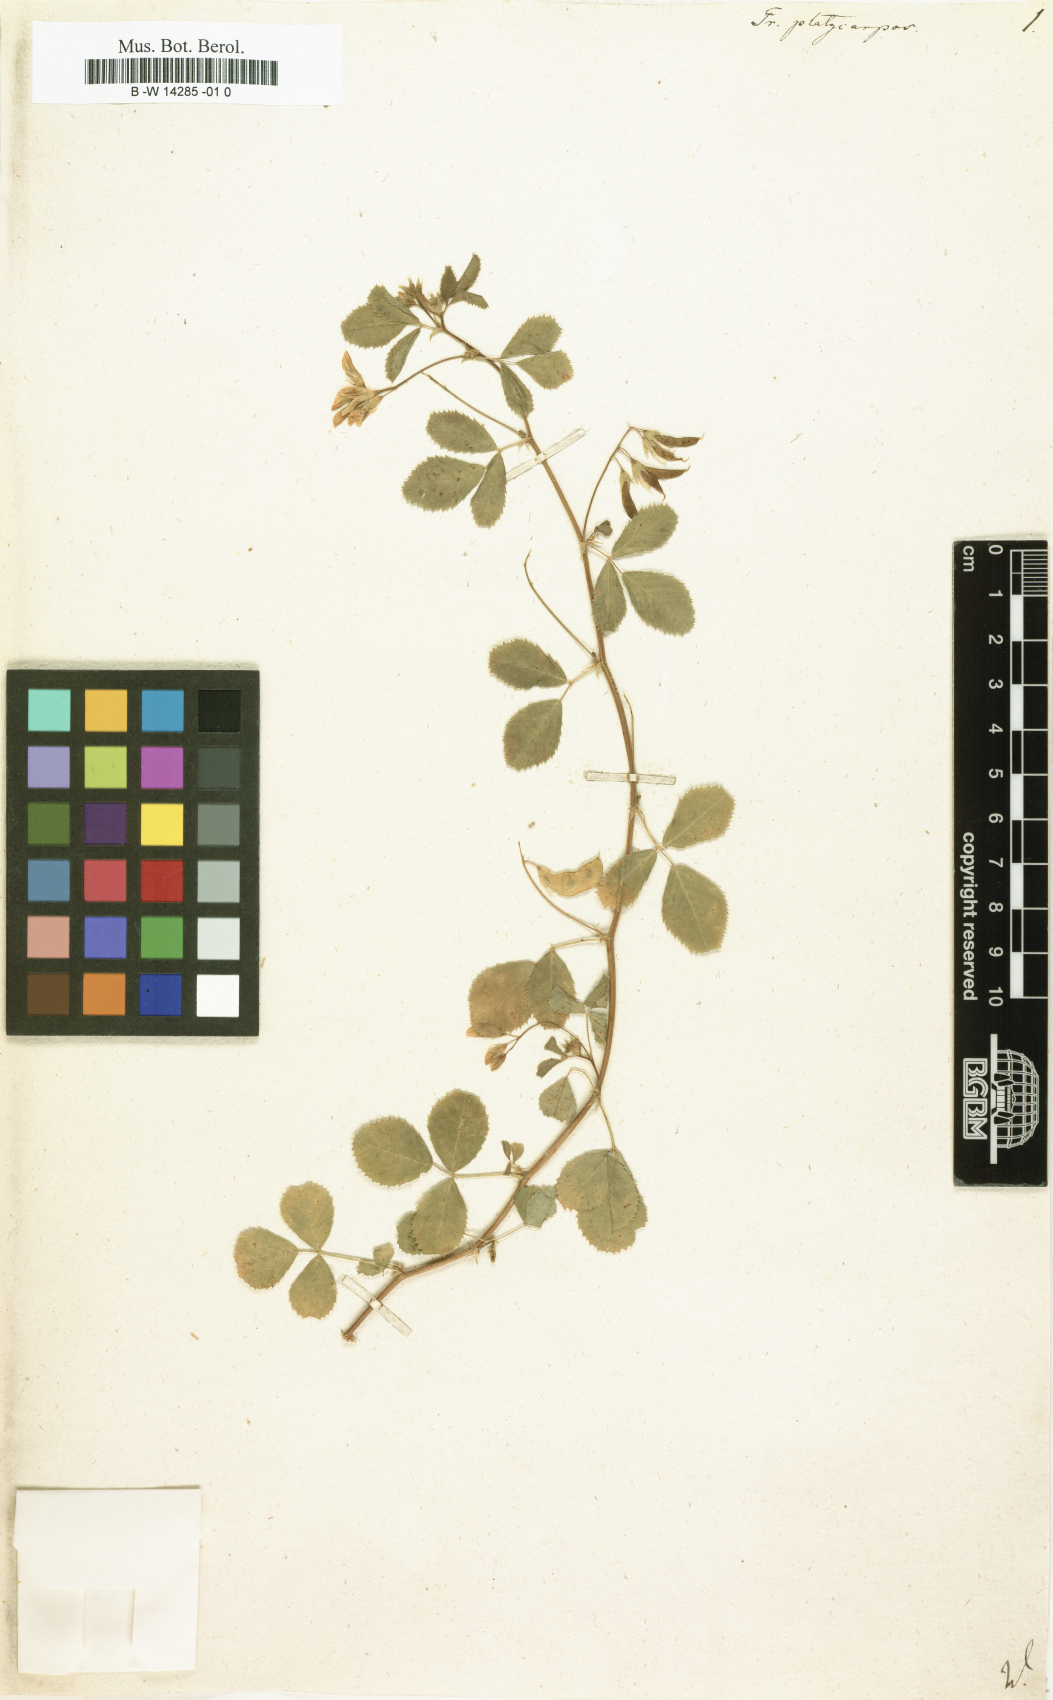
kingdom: Plantae
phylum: Tracheophyta
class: Magnoliopsida
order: Fabales
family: Fabaceae
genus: Medicago
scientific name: Medicago platycarpos
